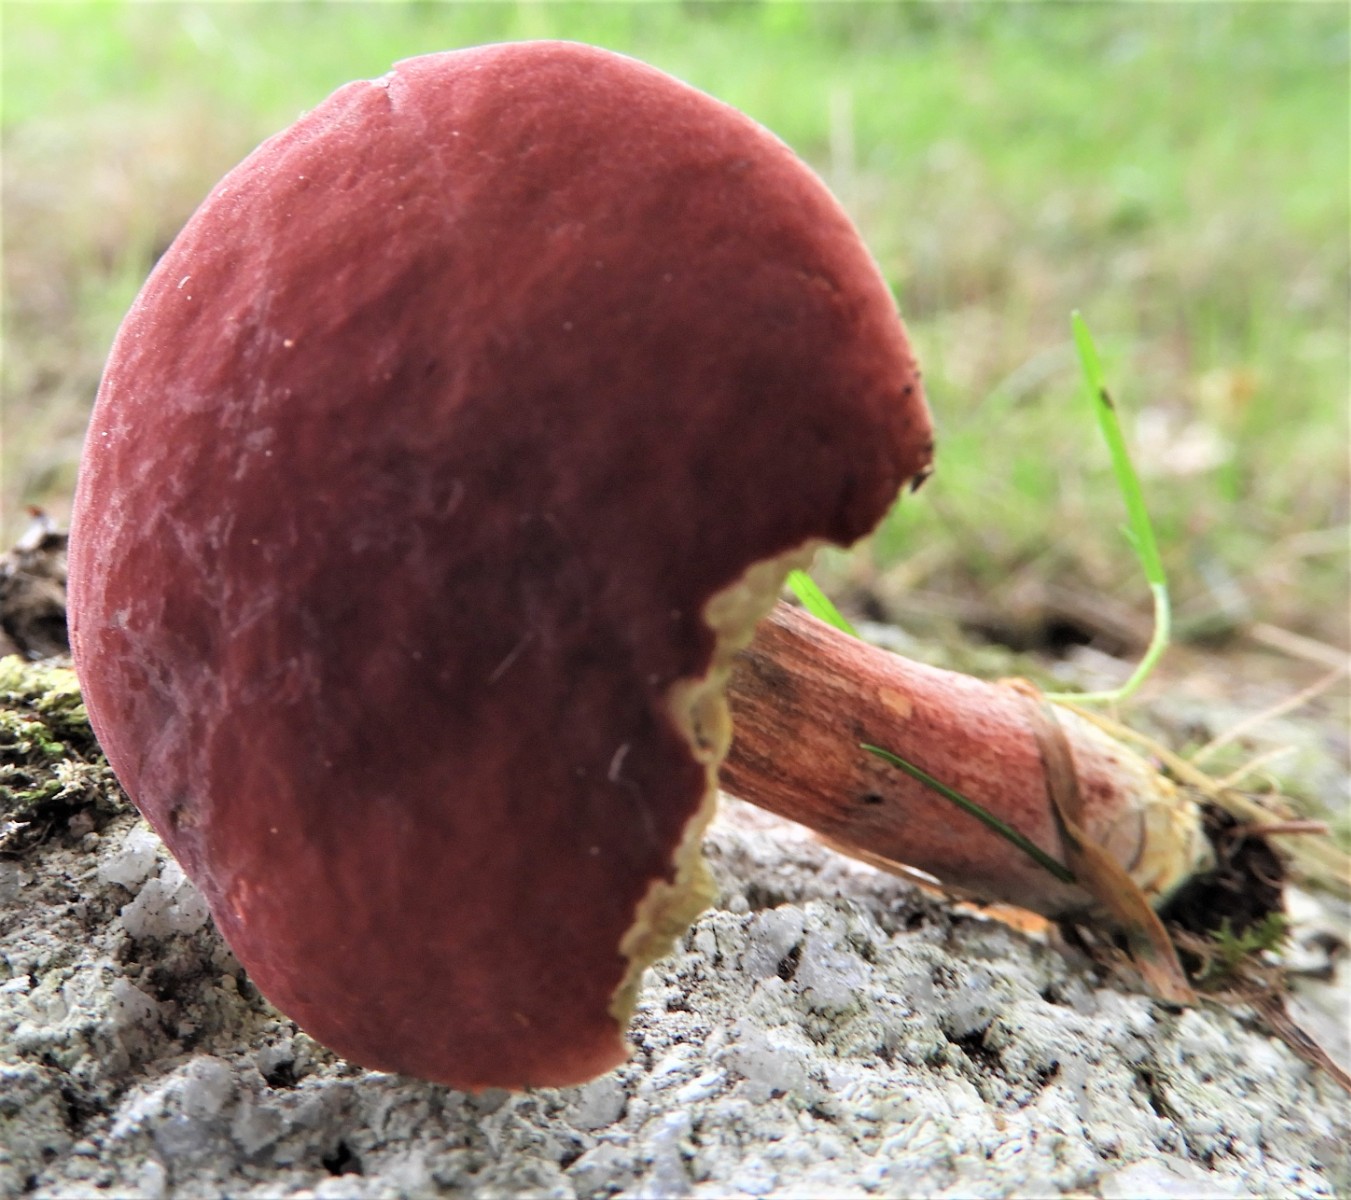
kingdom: Fungi
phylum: Basidiomycota
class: Agaricomycetes
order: Boletales
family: Boletaceae
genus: Hortiboletus
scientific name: Hortiboletus rubellus
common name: blodrød rørhat
